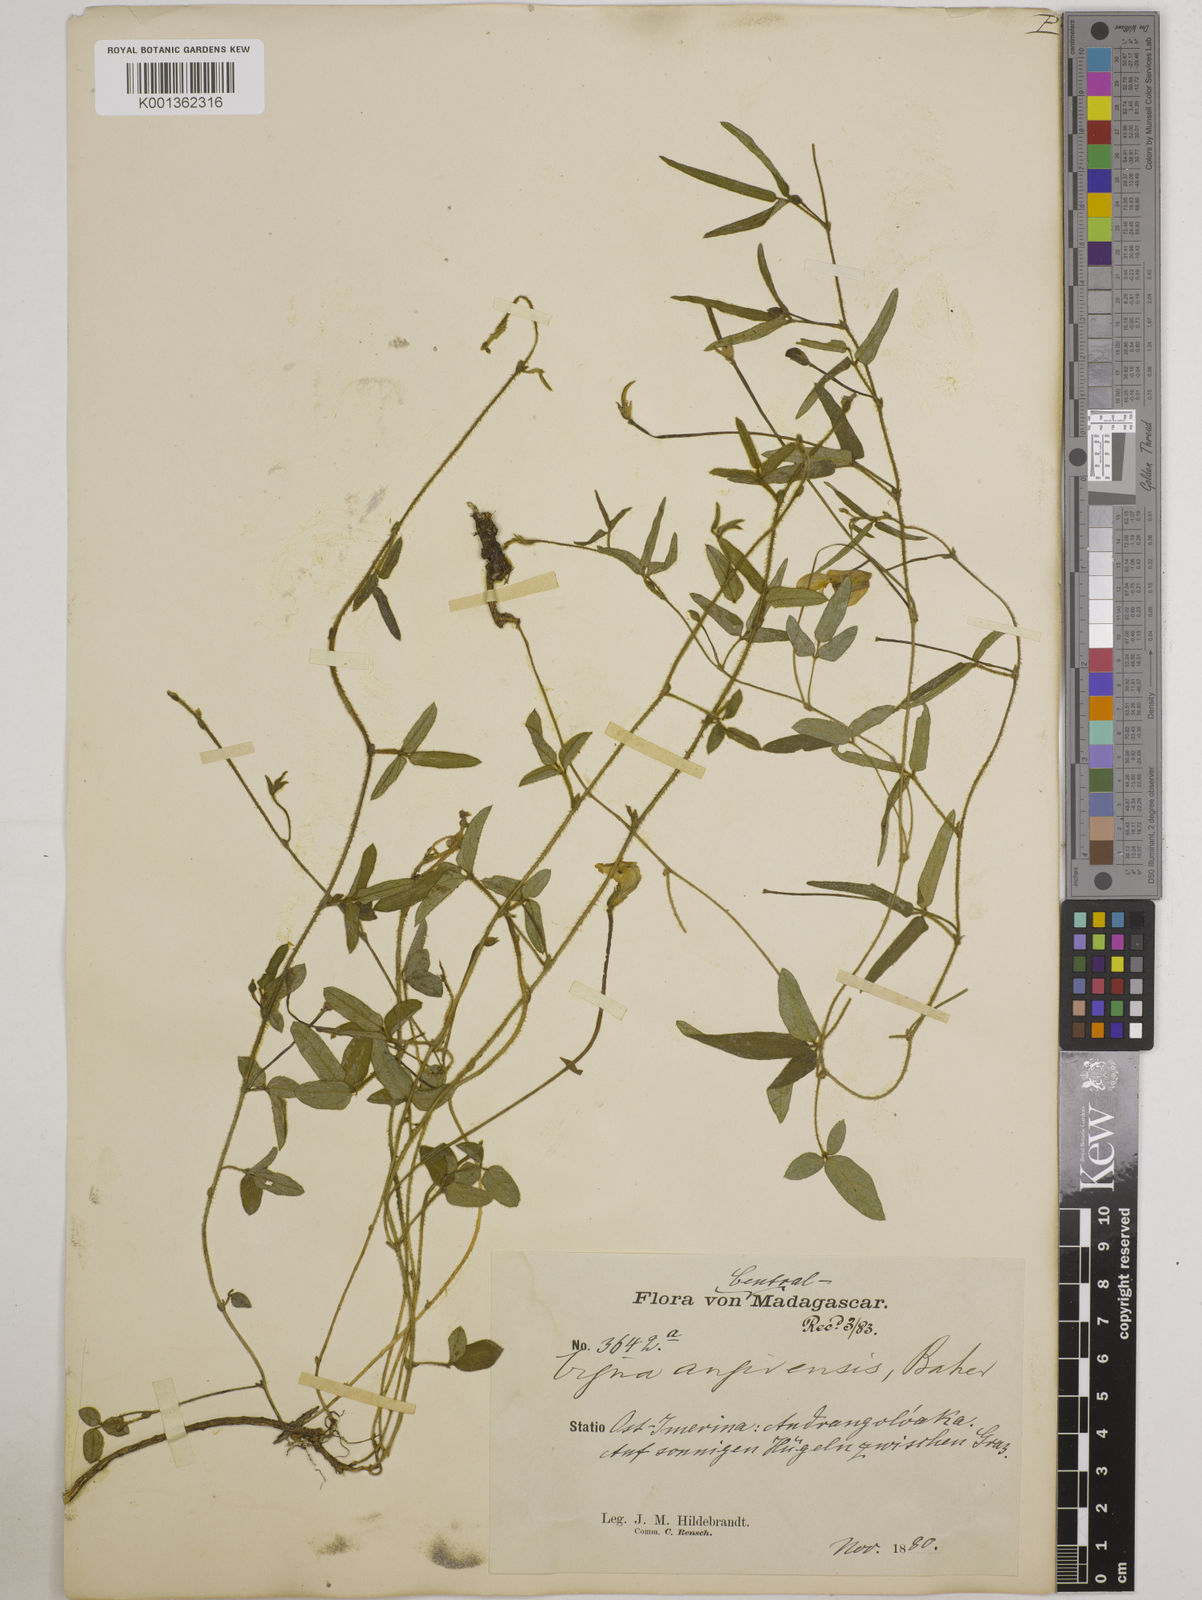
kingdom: Plantae
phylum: Tracheophyta
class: Magnoliopsida
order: Fabales
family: Fabaceae
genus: Vigna
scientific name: Vigna angivensis
